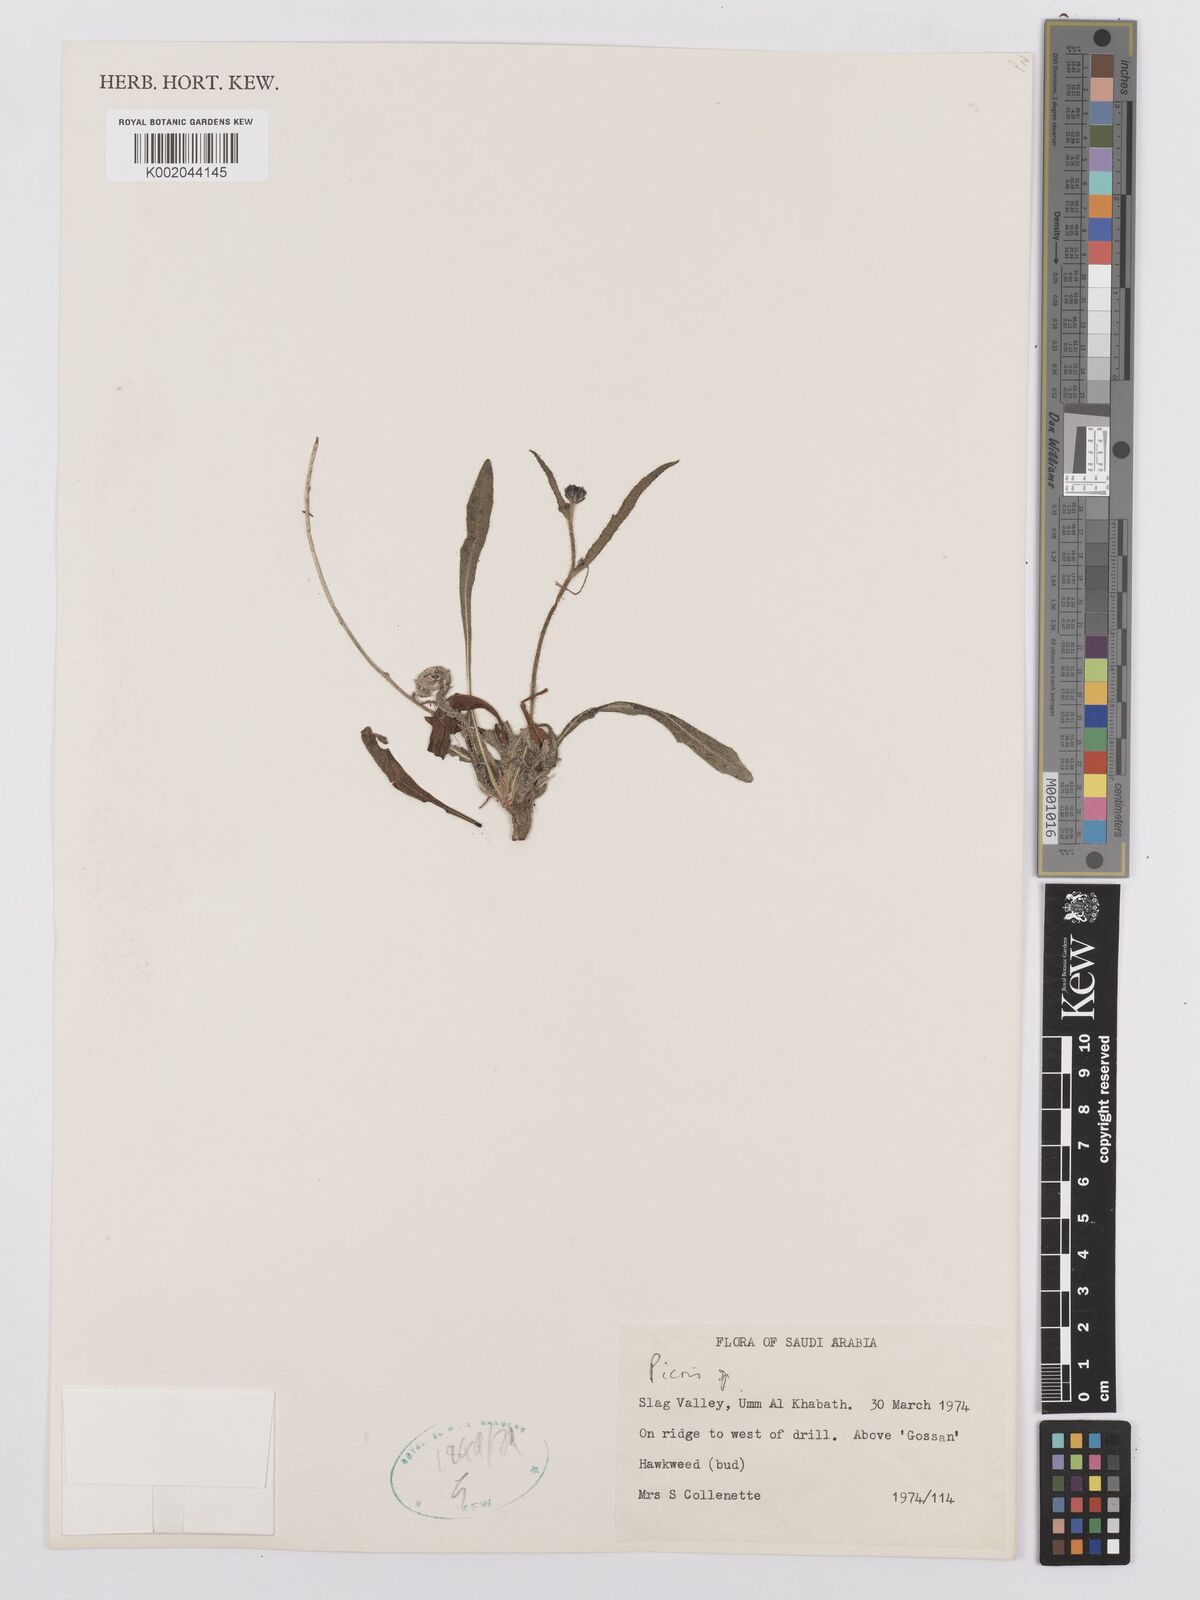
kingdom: Plantae
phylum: Tracheophyta
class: Magnoliopsida
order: Asterales
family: Asteraceae
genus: Picris
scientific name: Picris
